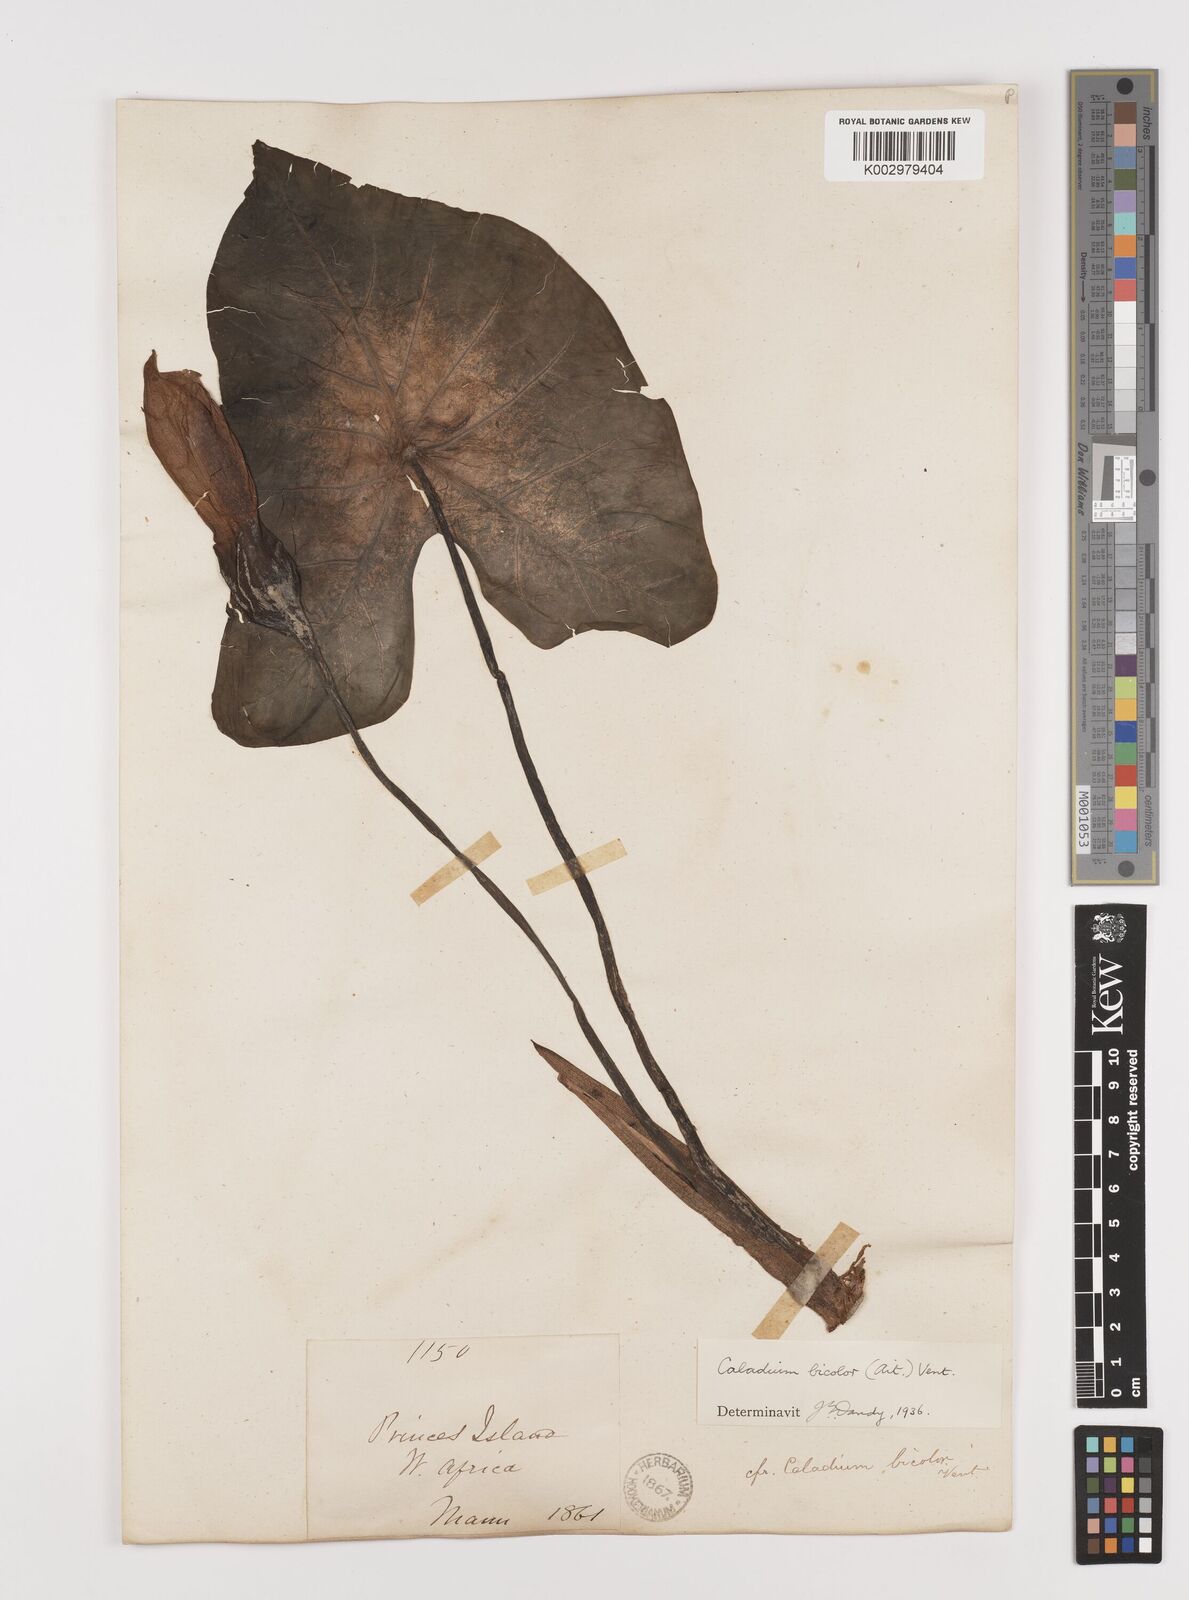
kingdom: Plantae
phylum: Tracheophyta
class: Liliopsida
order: Alismatales
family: Araceae
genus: Caladium
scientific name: Caladium bicolor
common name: Artist's pallet
